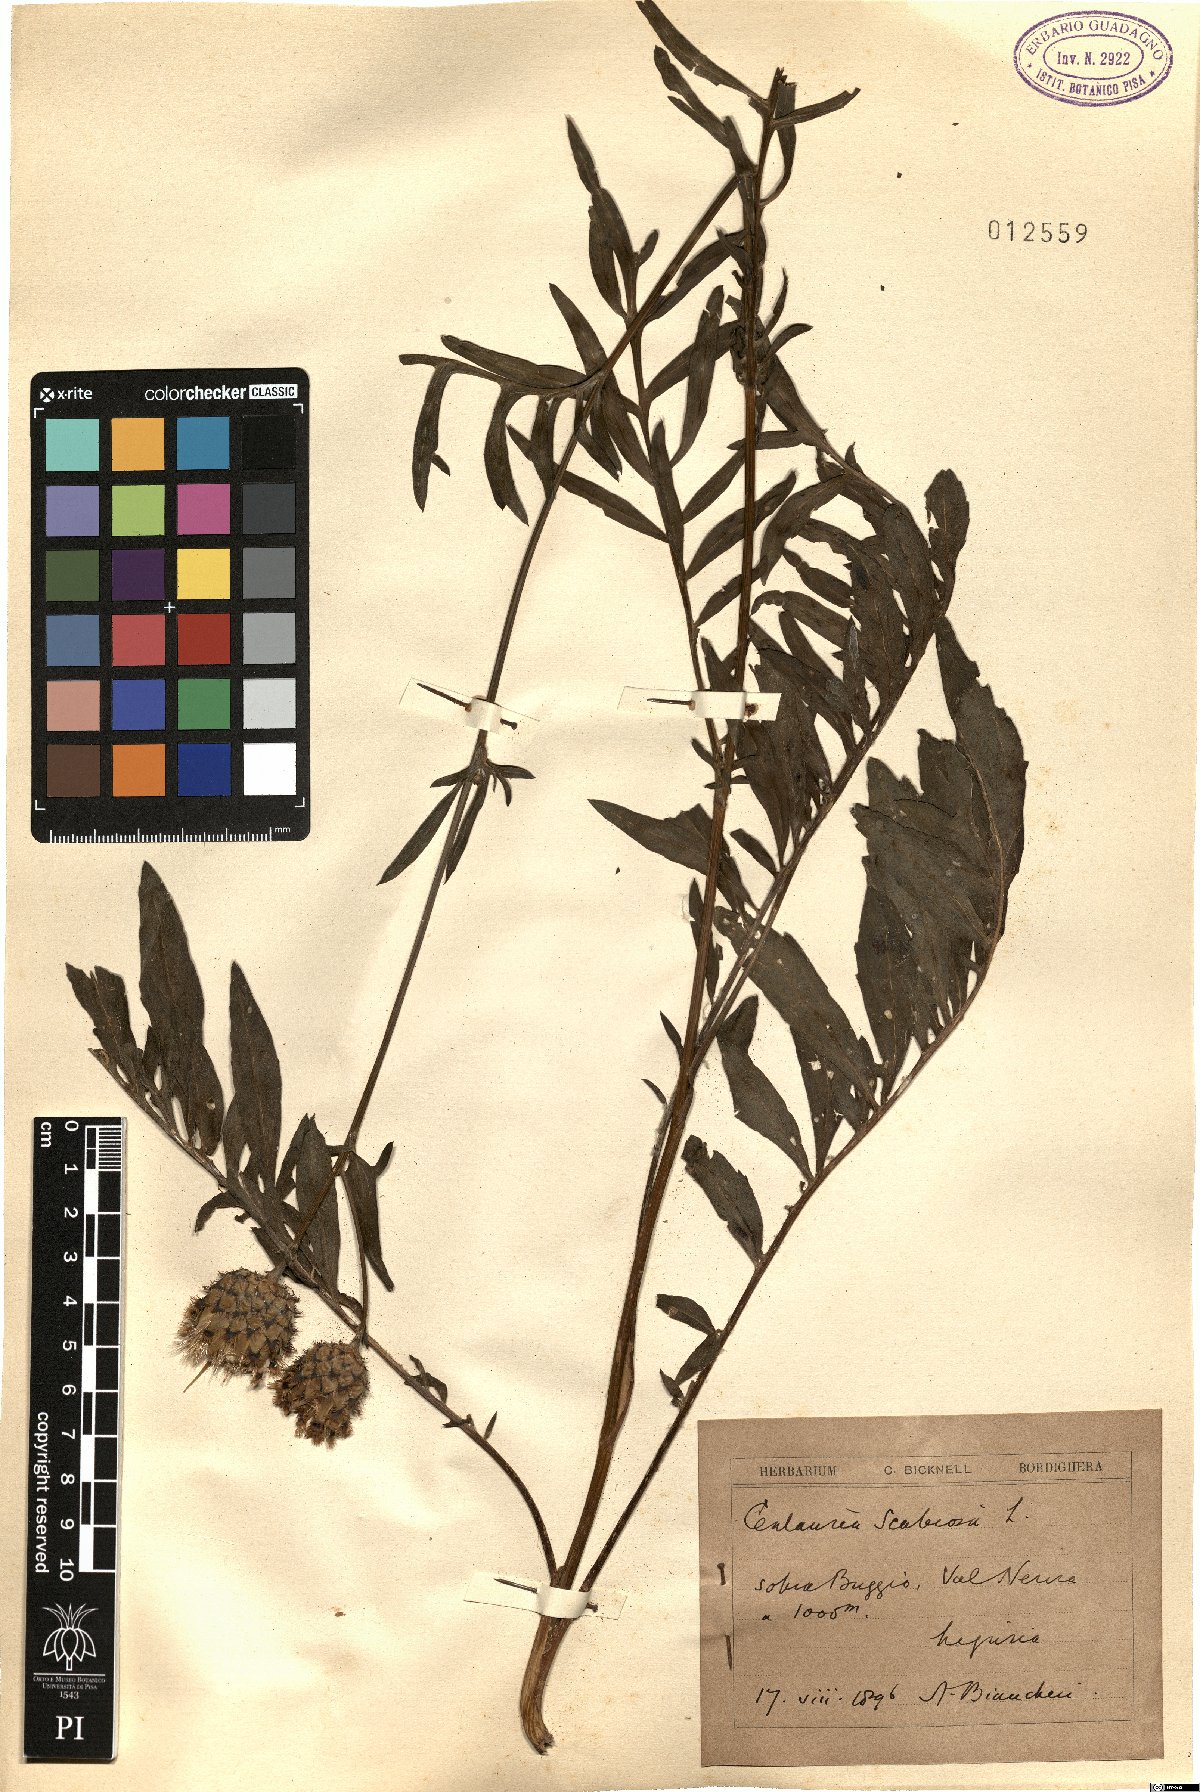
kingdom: Plantae
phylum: Tracheophyta
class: Magnoliopsida
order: Asterales
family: Asteraceae
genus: Centaurea
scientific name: Centaurea scabiosa
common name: Greater knapweed
